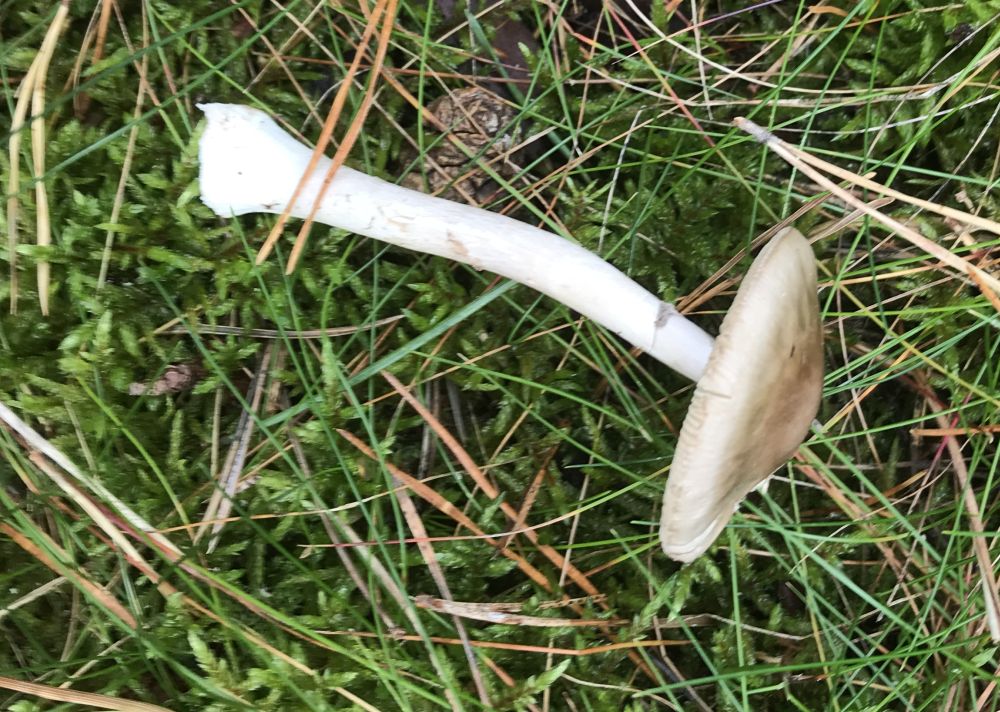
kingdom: Fungi
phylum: Basidiomycota
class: Agaricomycetes
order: Agaricales
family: Amanitaceae
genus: Amanita
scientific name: Amanita porphyria
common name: porfyr-fluesvamp
